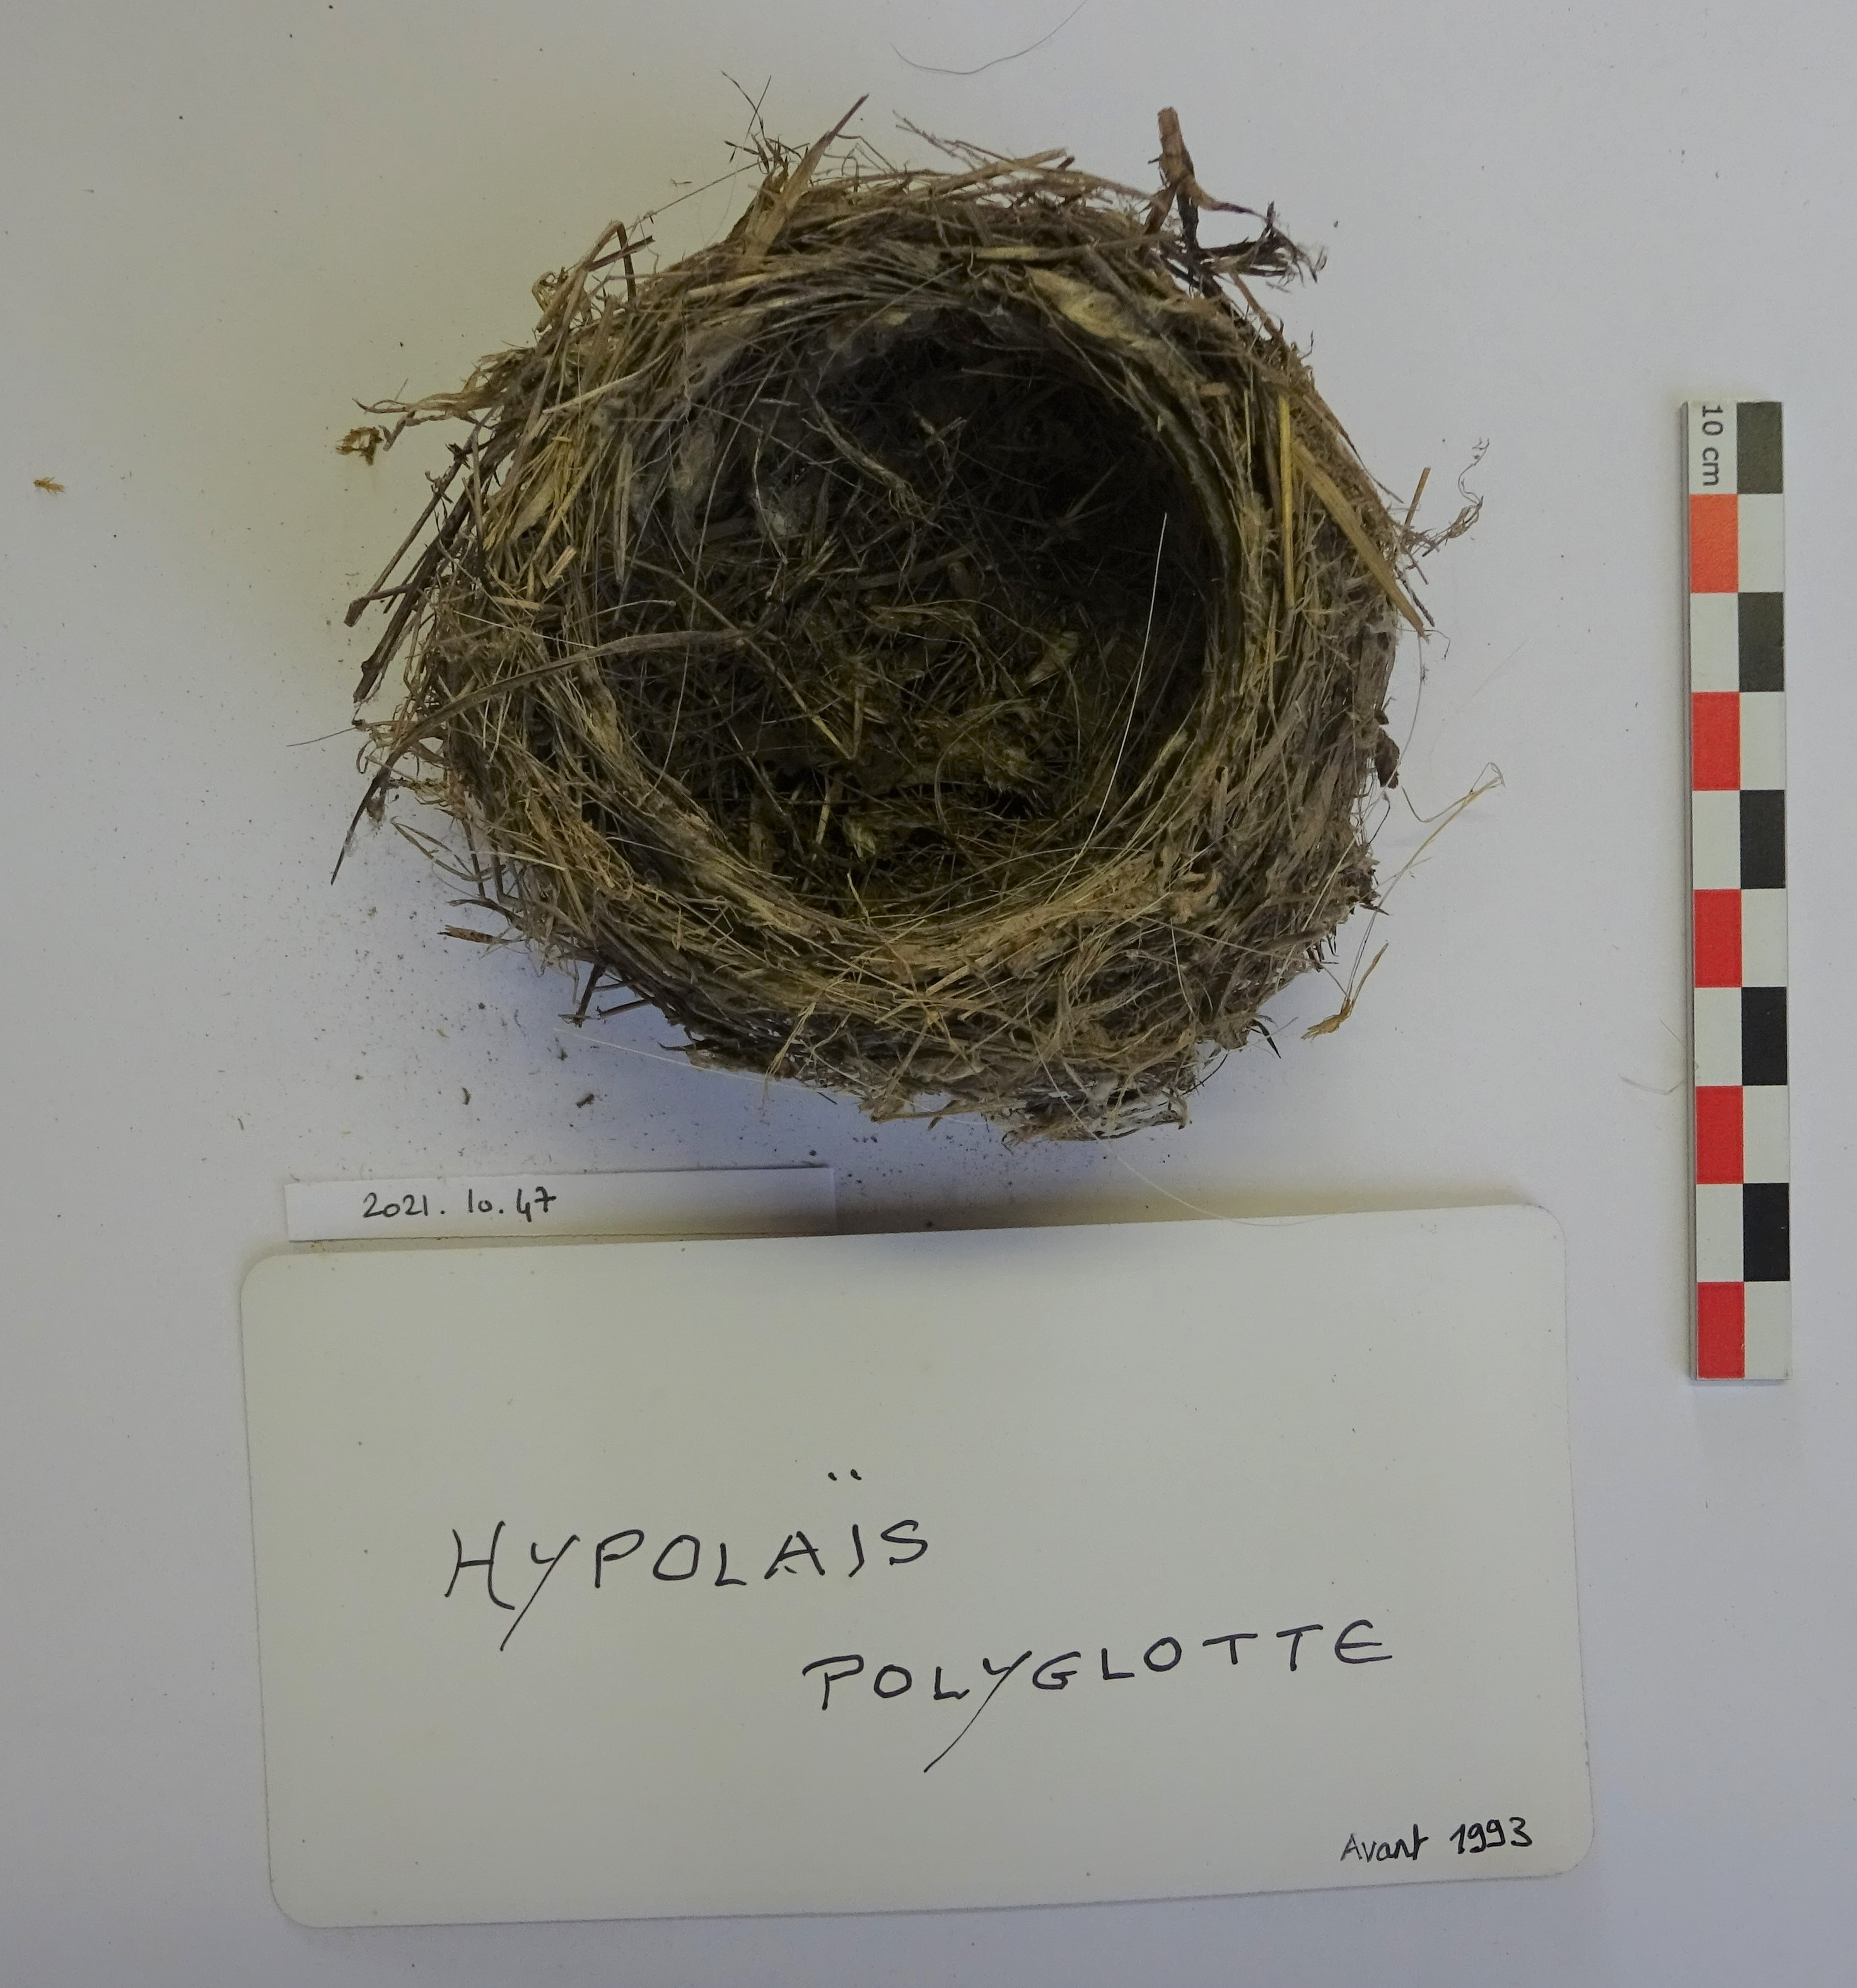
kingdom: Animalia
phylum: Chordata
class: Aves
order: Passeriformes
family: Acrocephalidae
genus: Hippolais
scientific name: Hippolais polyglotta
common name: Melodious warbler
